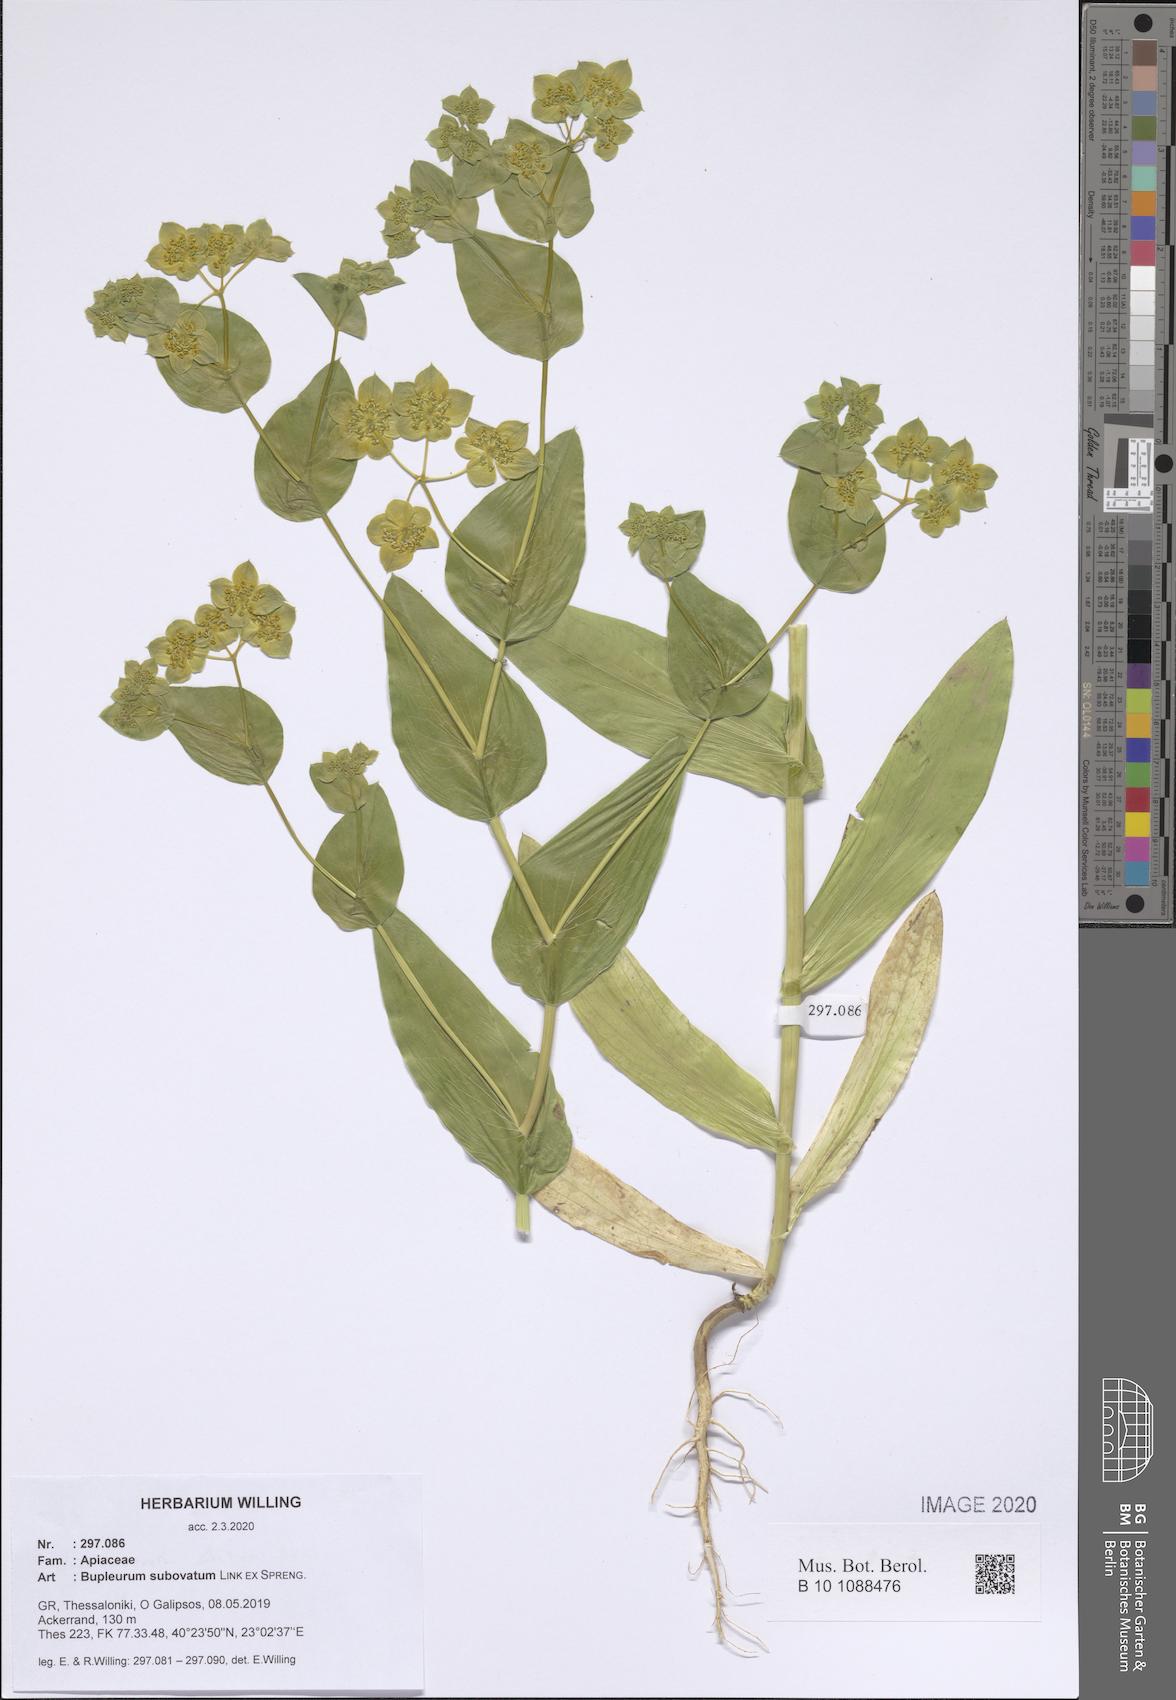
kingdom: Plantae
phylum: Tracheophyta
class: Magnoliopsida
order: Apiales
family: Apiaceae
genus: Bupleurum
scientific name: Bupleurum subovatum
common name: False thorow-wax
